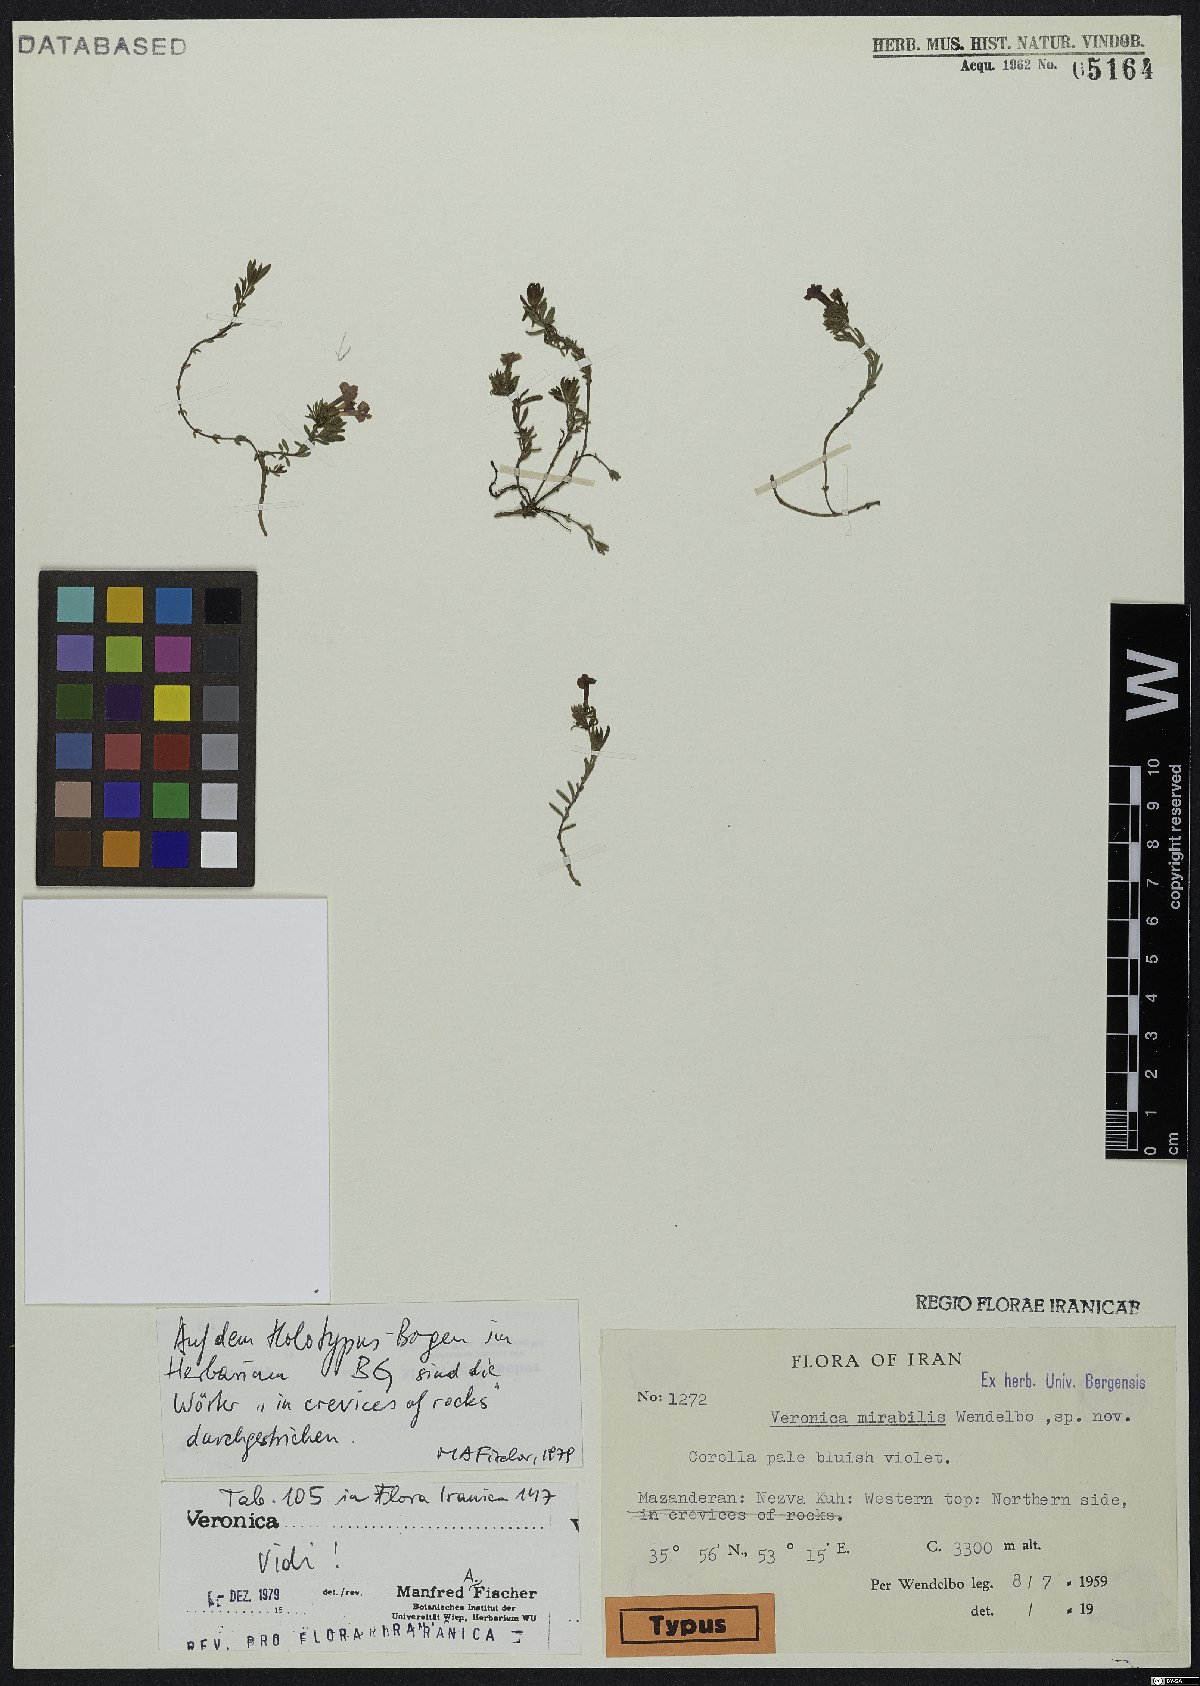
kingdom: Plantae
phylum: Tracheophyta
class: Magnoliopsida
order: Lamiales
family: Plantaginaceae
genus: Veronica
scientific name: Veronica mirabilis
